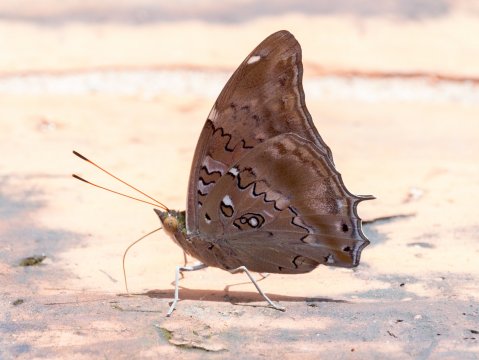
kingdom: Animalia
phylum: Arthropoda
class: Insecta
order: Lepidoptera
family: Nymphalidae
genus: Coea
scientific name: Coea acheronta
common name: Tailed Cecropian
